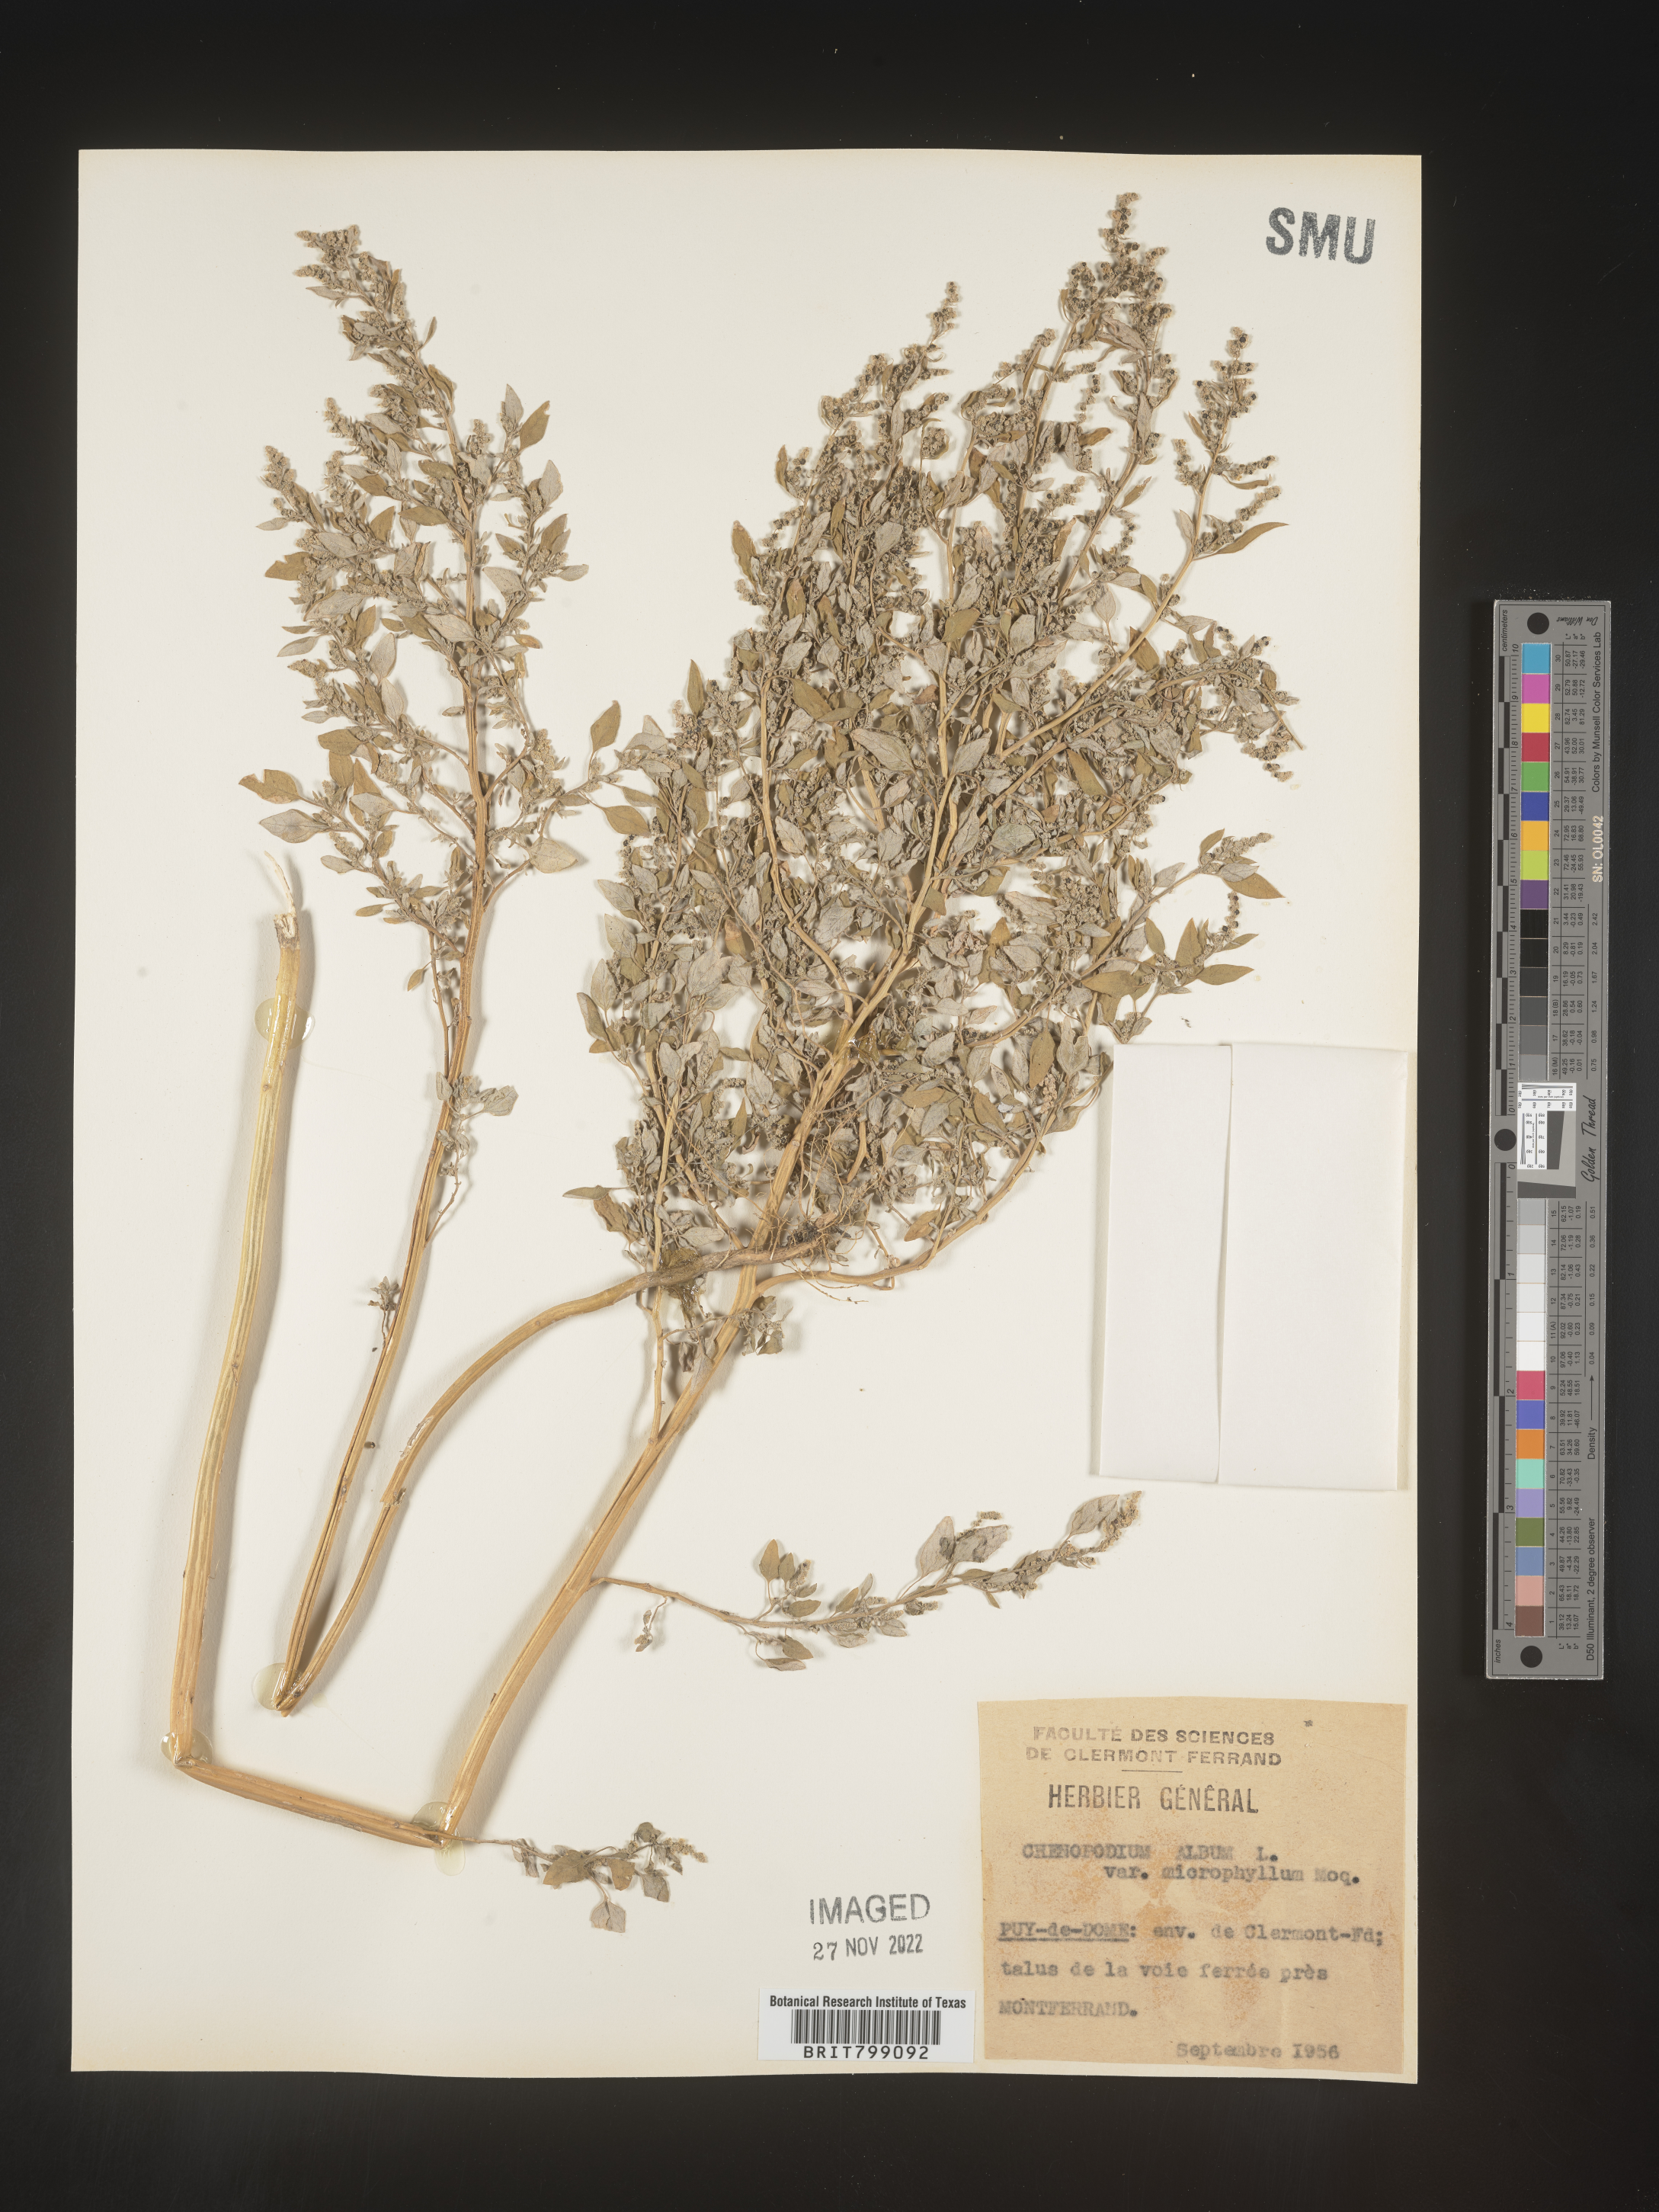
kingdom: Plantae
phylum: Tracheophyta
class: Magnoliopsida
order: Caryophyllales
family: Amaranthaceae
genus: Chenopodium
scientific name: Chenopodium
